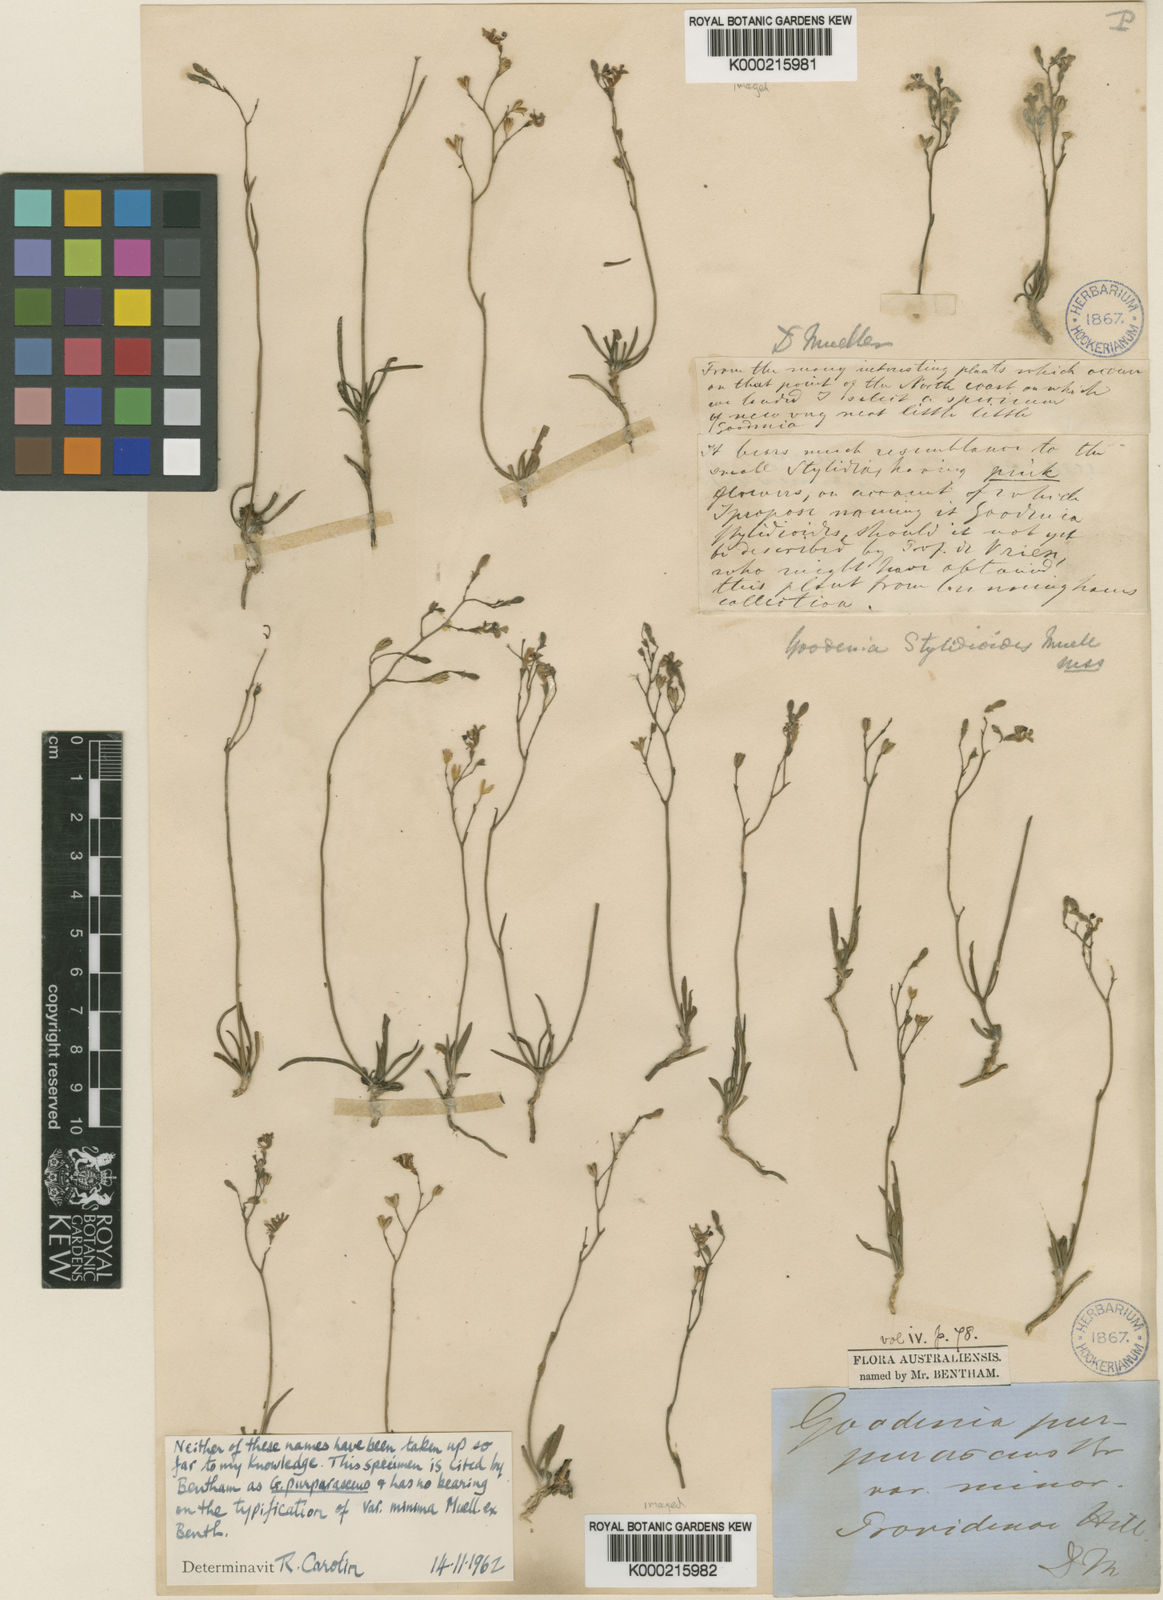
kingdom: Plantae
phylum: Tracheophyta
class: Magnoliopsida
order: Asterales
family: Goodeniaceae
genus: Goodenia
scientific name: Goodenia minutiflora
